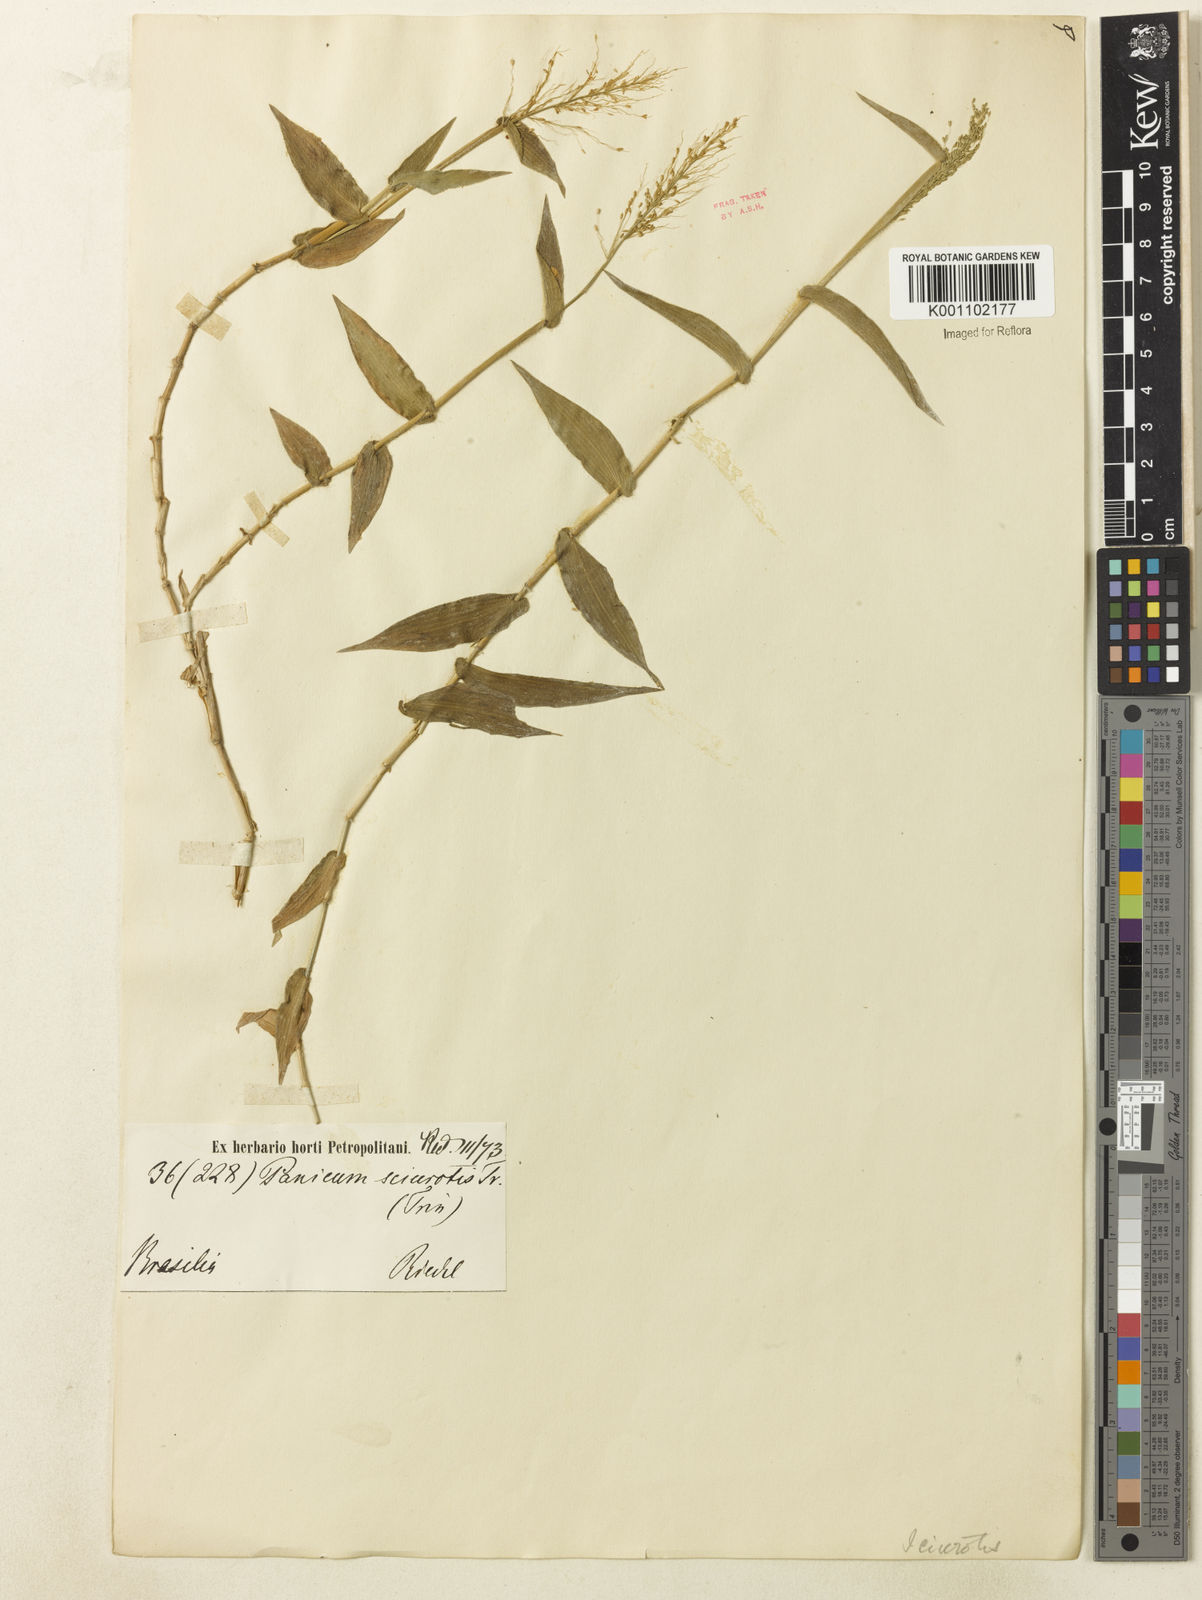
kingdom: Plantae
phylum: Tracheophyta
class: Liliopsida
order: Poales
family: Poaceae
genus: Dichanthelium
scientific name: Dichanthelium sciurotoides
